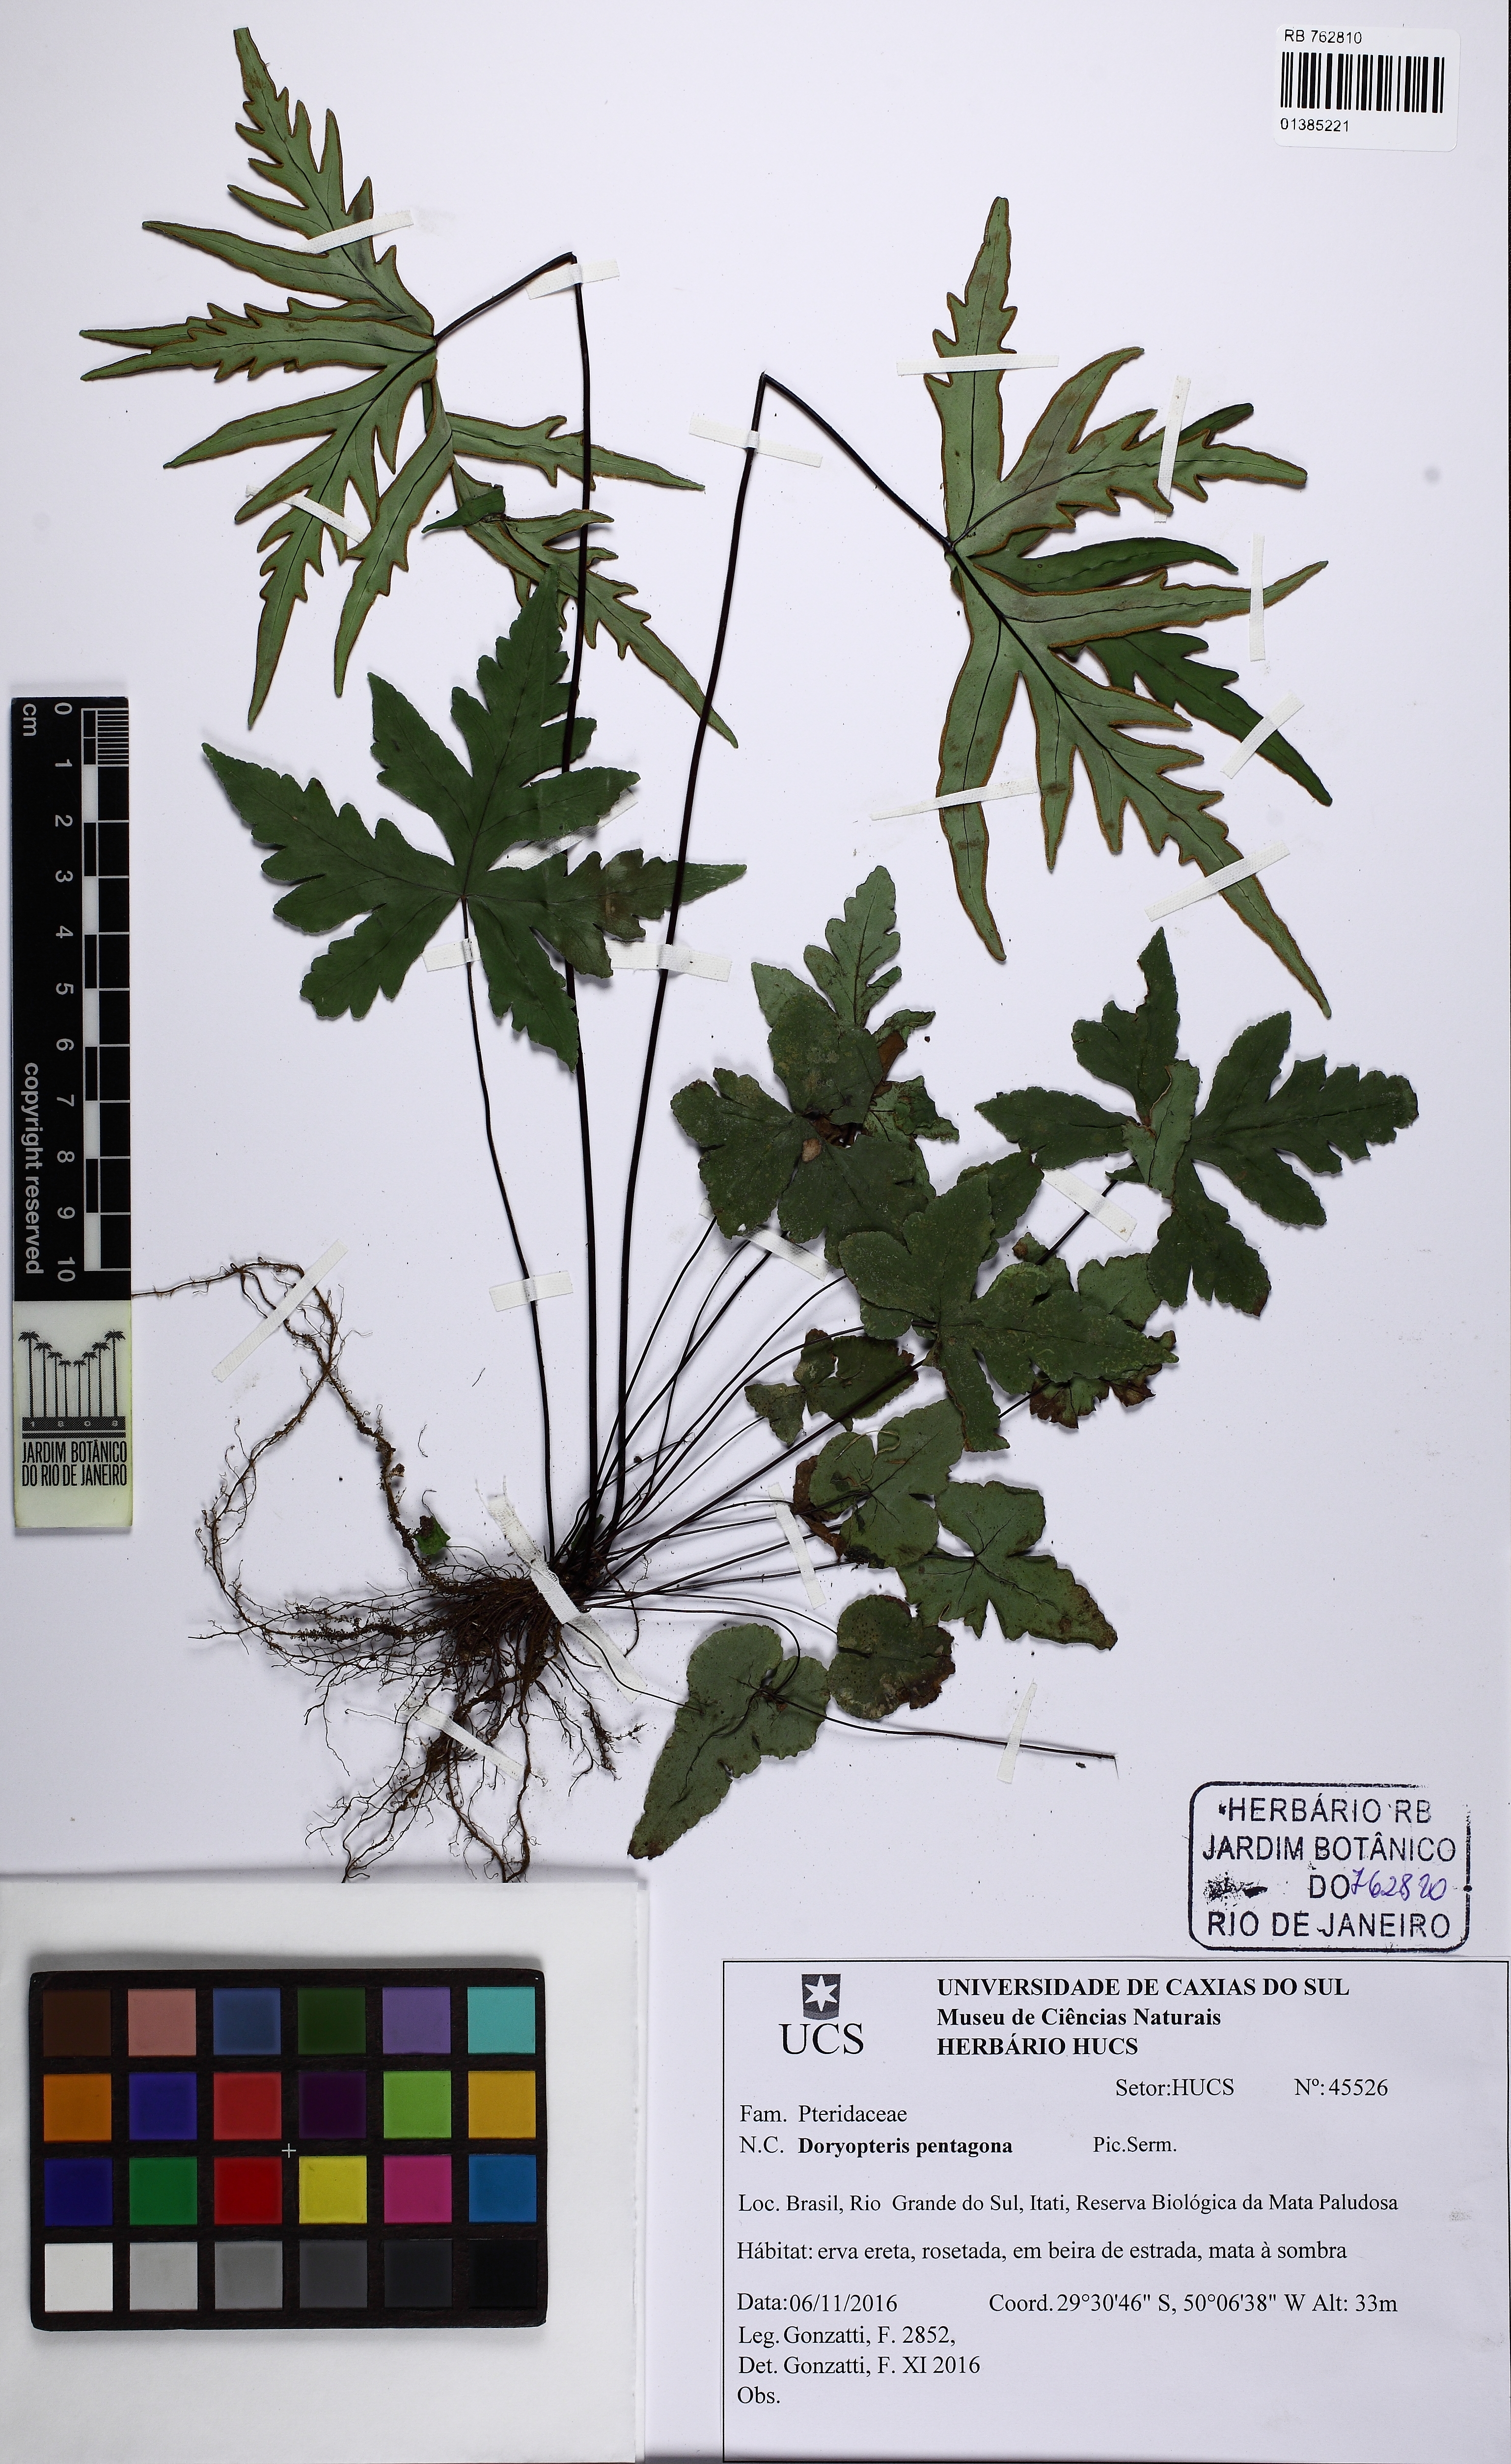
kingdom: Plantae
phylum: Tracheophyta
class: Polypodiopsida
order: Polypodiales
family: Pteridaceae
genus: Doryopteris
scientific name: Doryopteris pentagona
